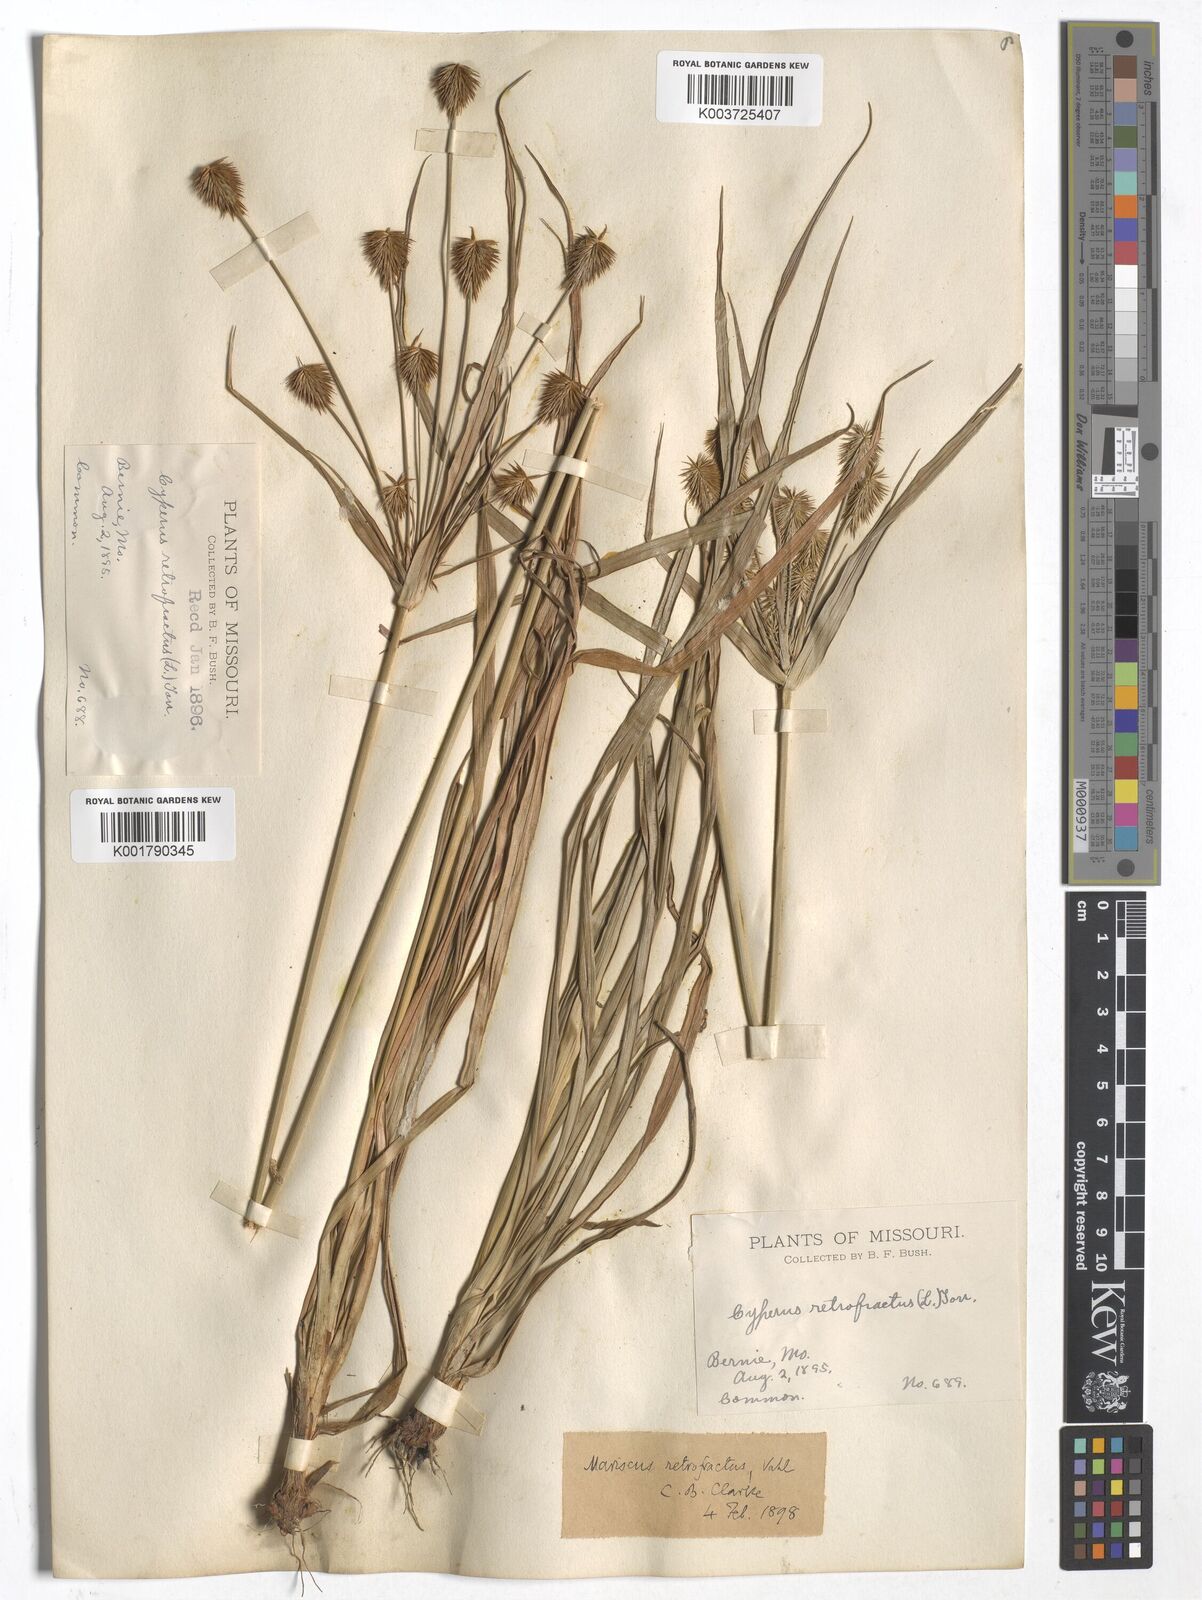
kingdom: Plantae
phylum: Tracheophyta
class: Liliopsida
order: Poales
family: Cyperaceae
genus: Cyperus
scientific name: Cyperus retrofractus
